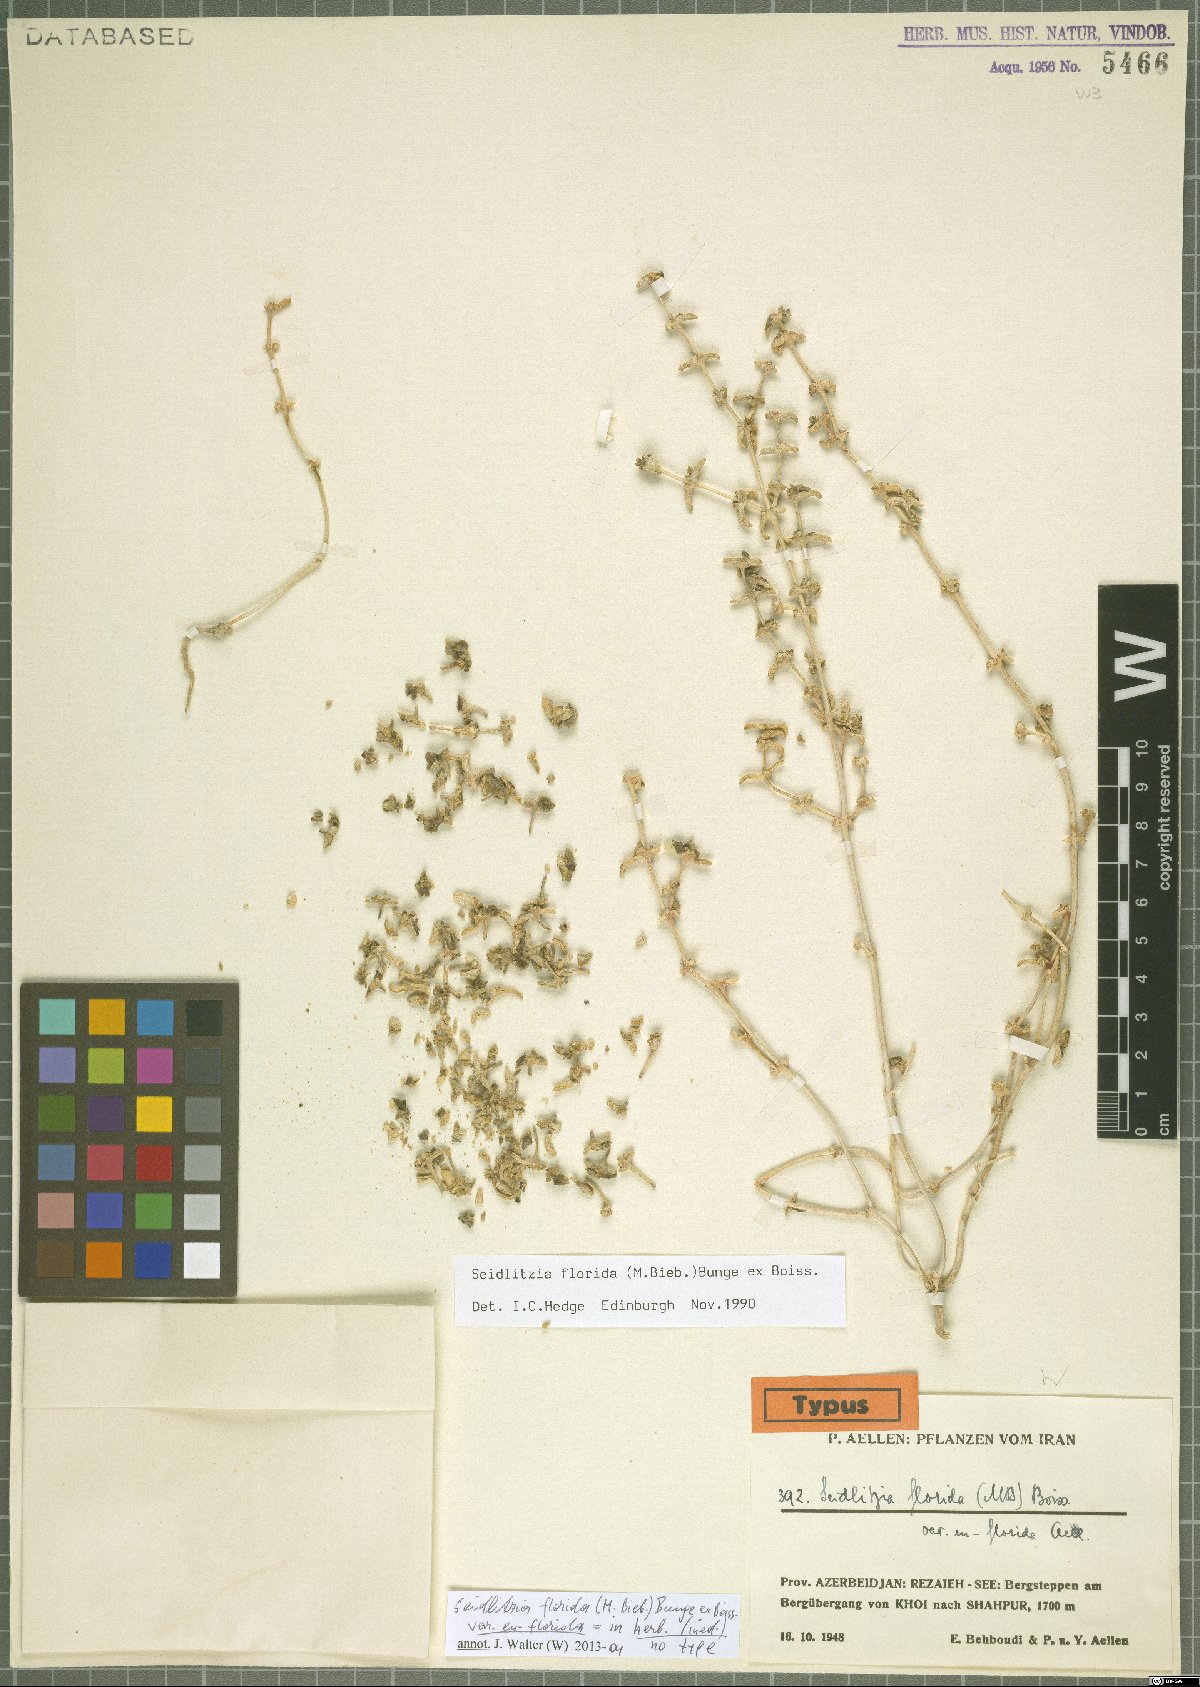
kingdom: Plantae
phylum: Tracheophyta
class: Magnoliopsida
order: Caryophyllales
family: Amaranthaceae
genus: Soda
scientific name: Soda florida
